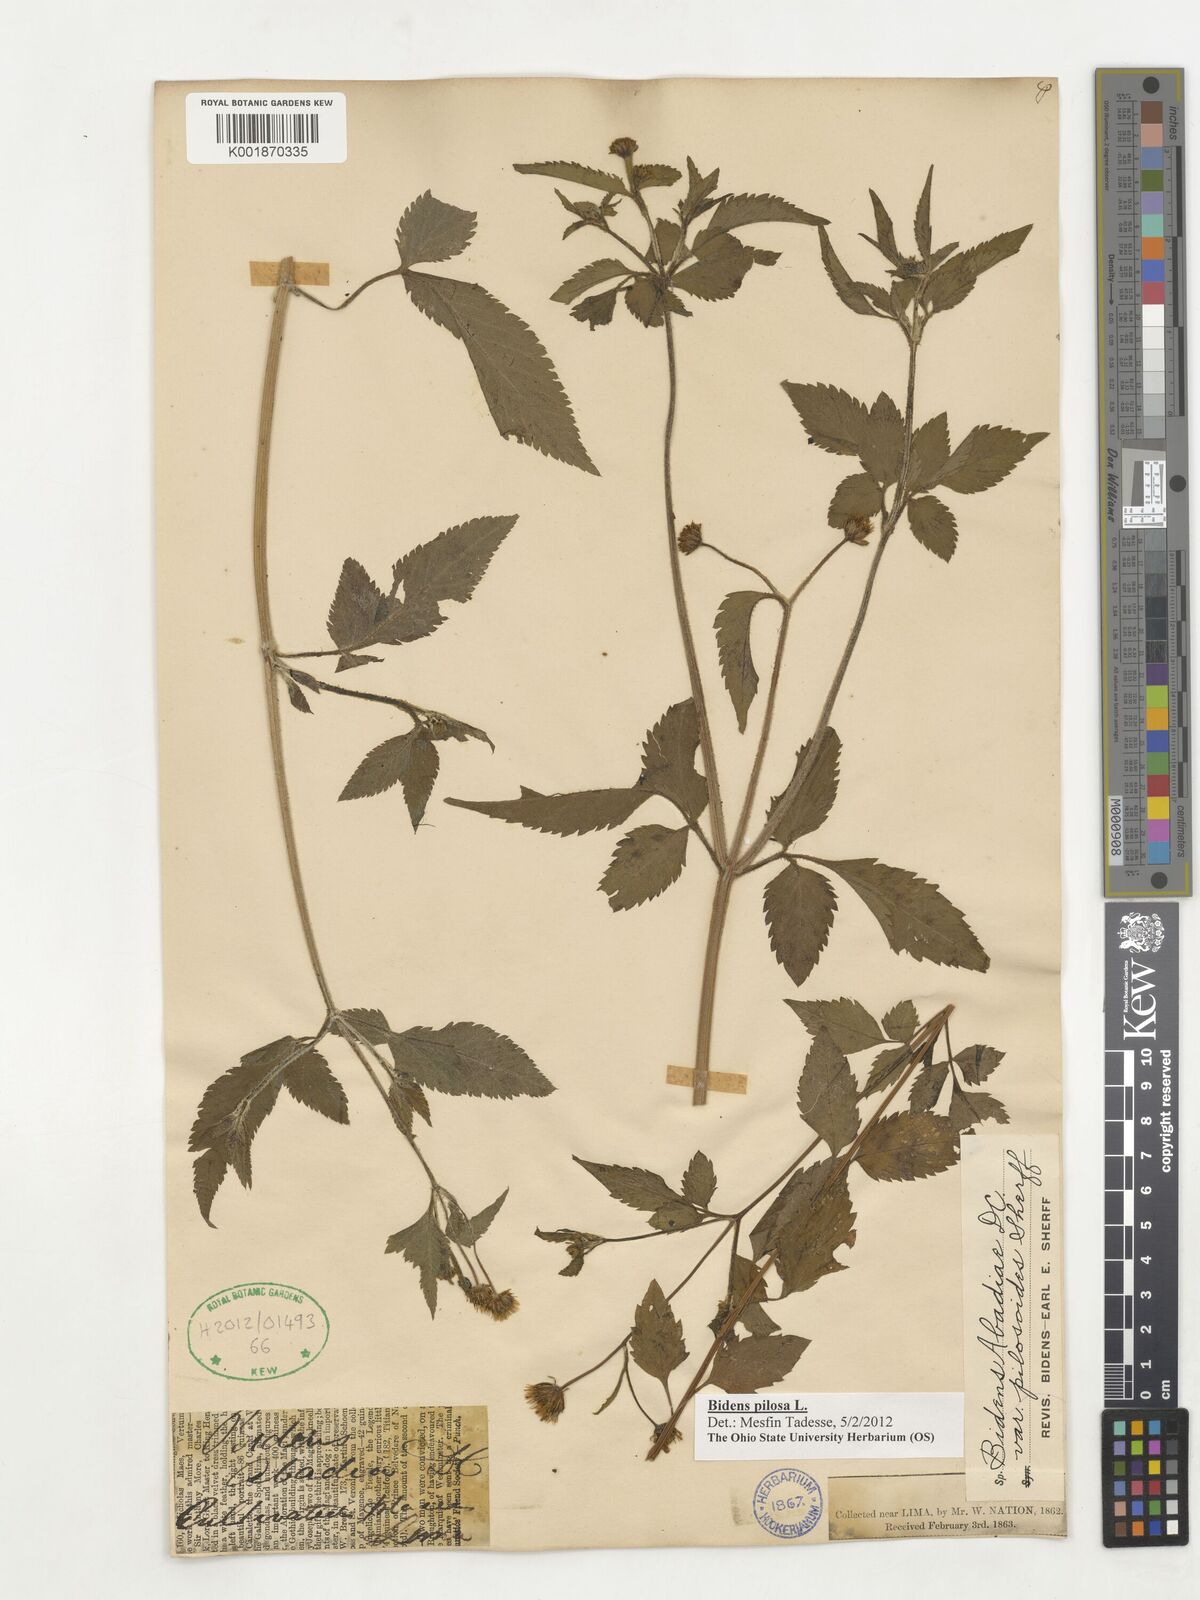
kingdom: Plantae
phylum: Tracheophyta
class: Magnoliopsida
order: Asterales
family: Asteraceae
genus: Bidens
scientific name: Bidens pilosa
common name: Black-jack
